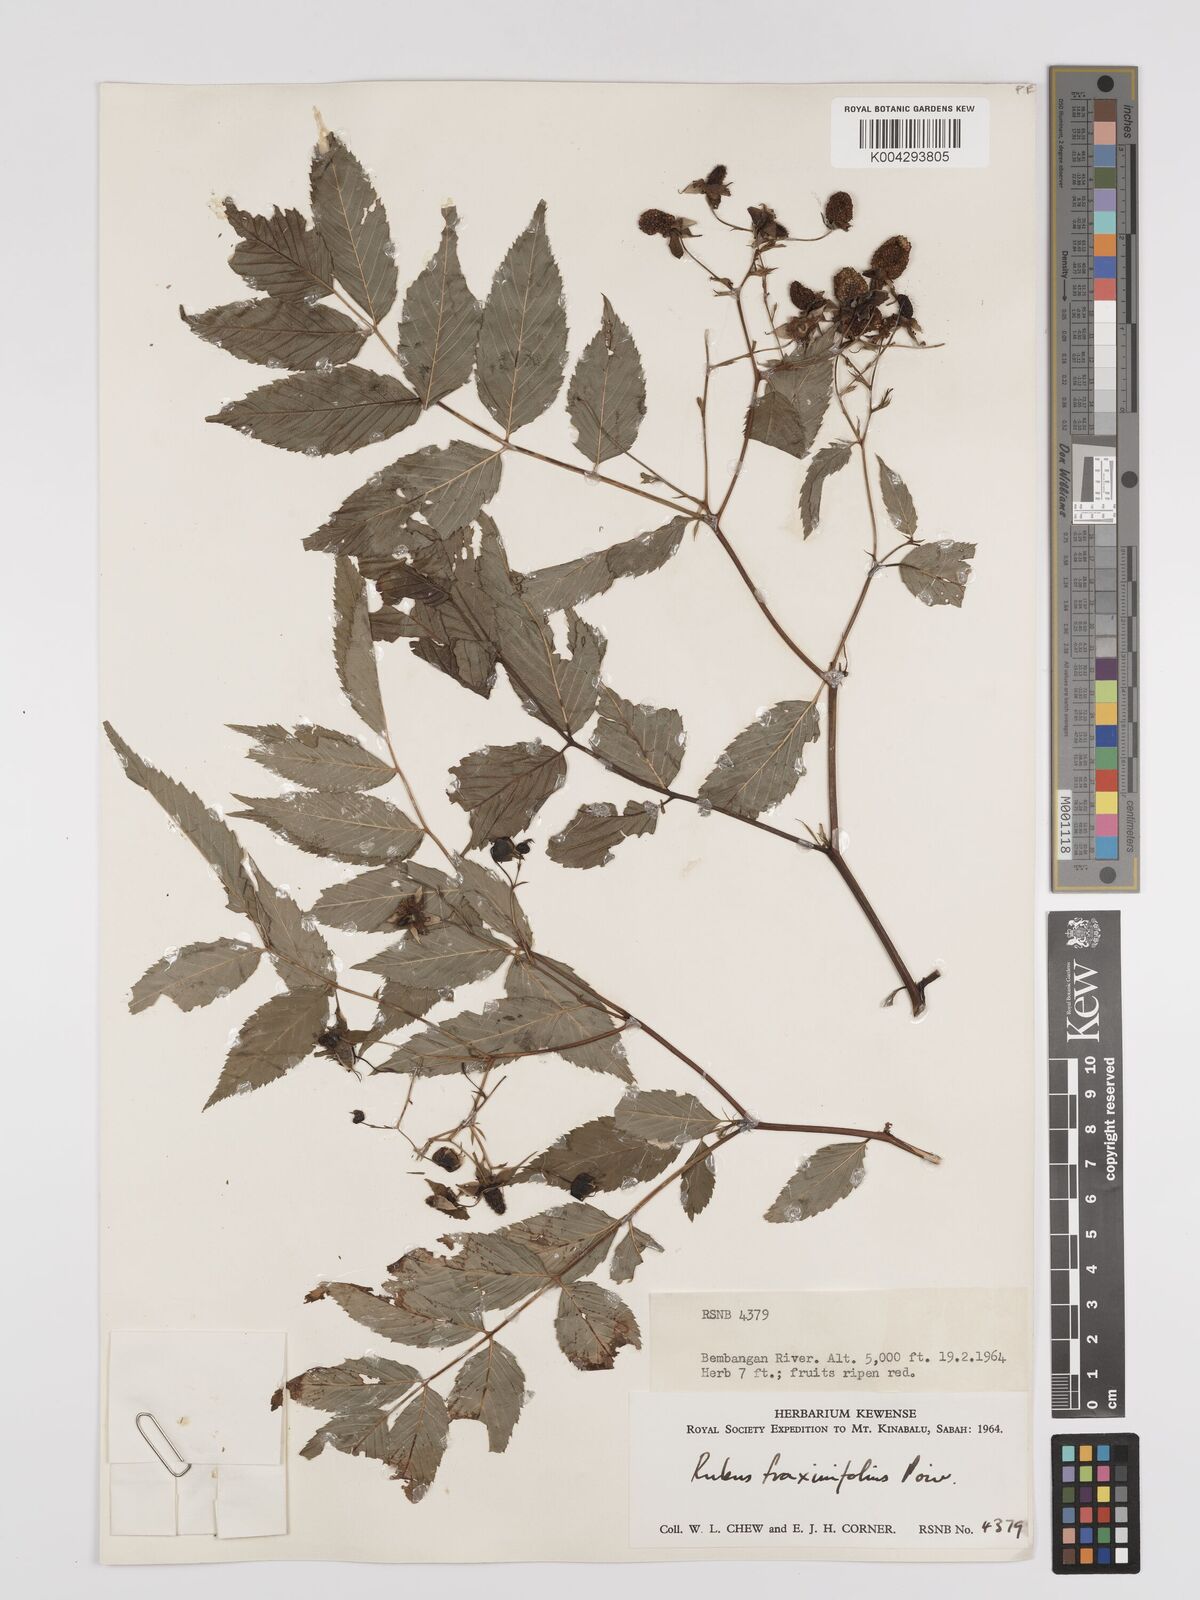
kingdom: Plantae
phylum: Tracheophyta
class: Magnoliopsida
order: Rosales
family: Rosaceae
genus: Rubus
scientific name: Rubus fraxinifolius
